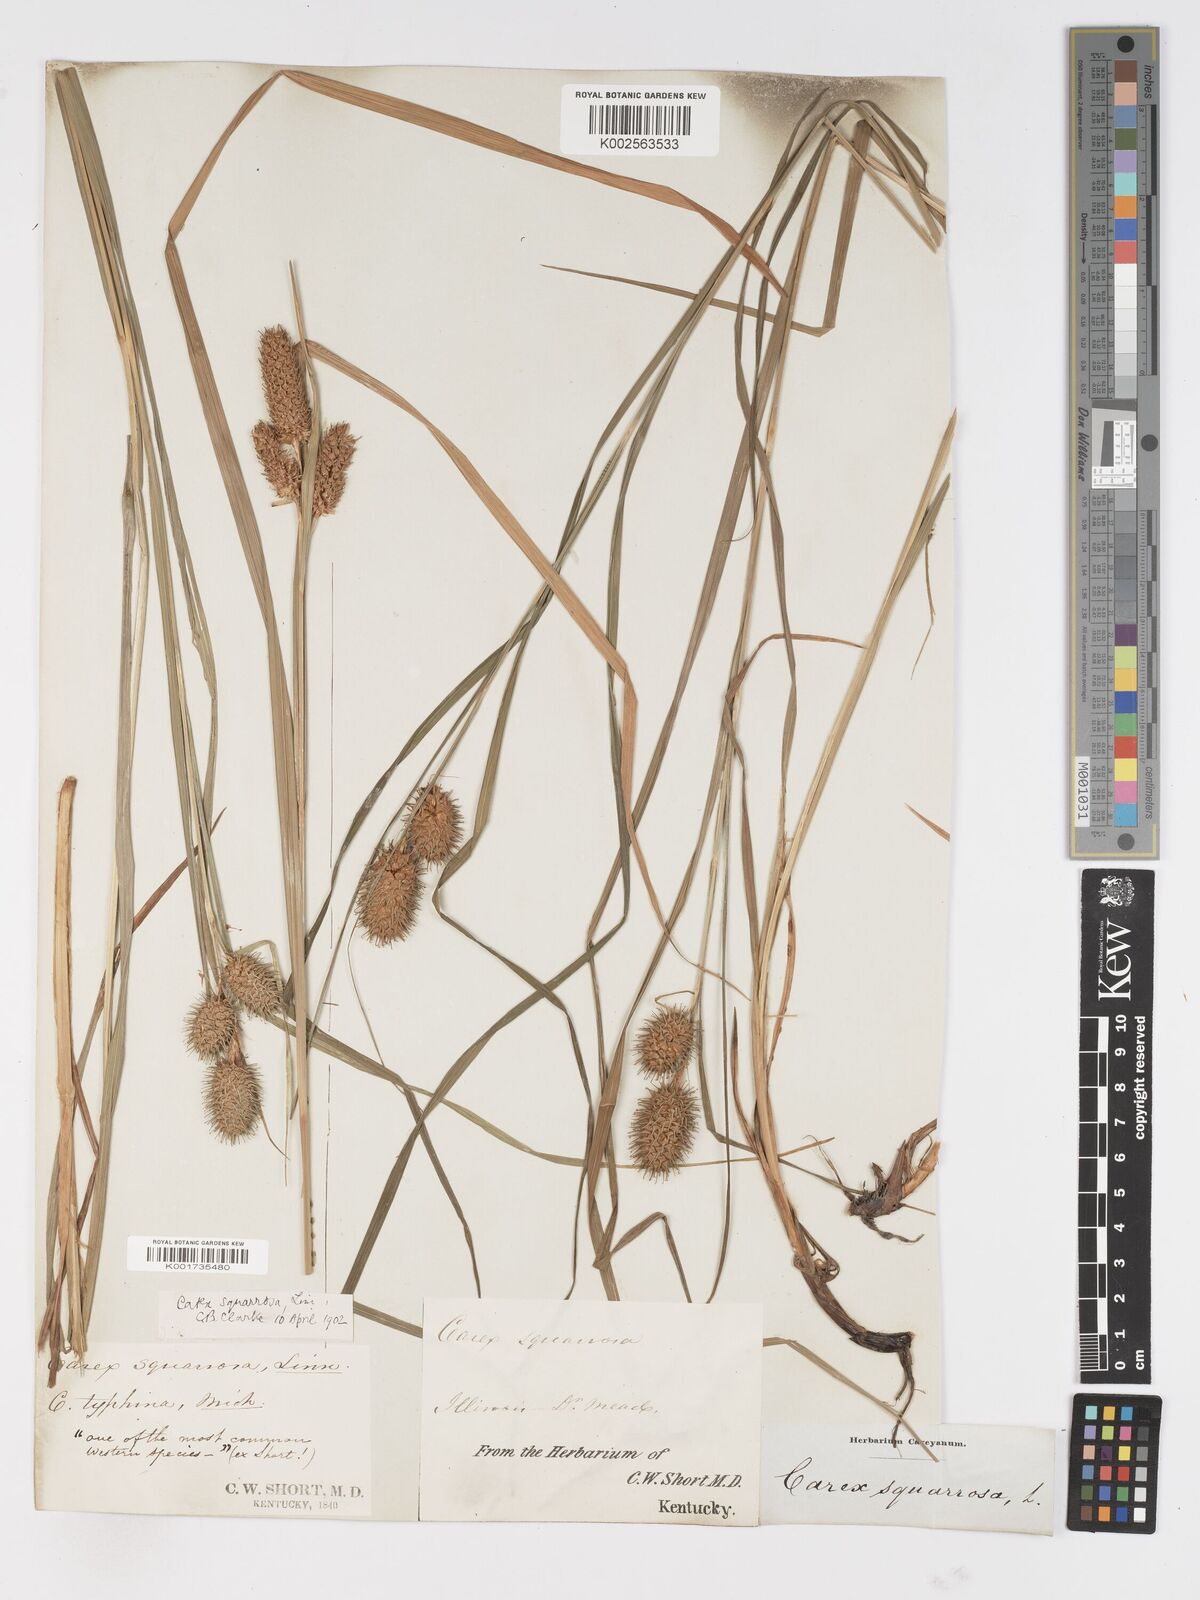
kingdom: Plantae
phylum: Tracheophyta
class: Liliopsida
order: Poales
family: Cyperaceae
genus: Carex
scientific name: Carex squarrosa
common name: Narrow-leaved cattail sedge
